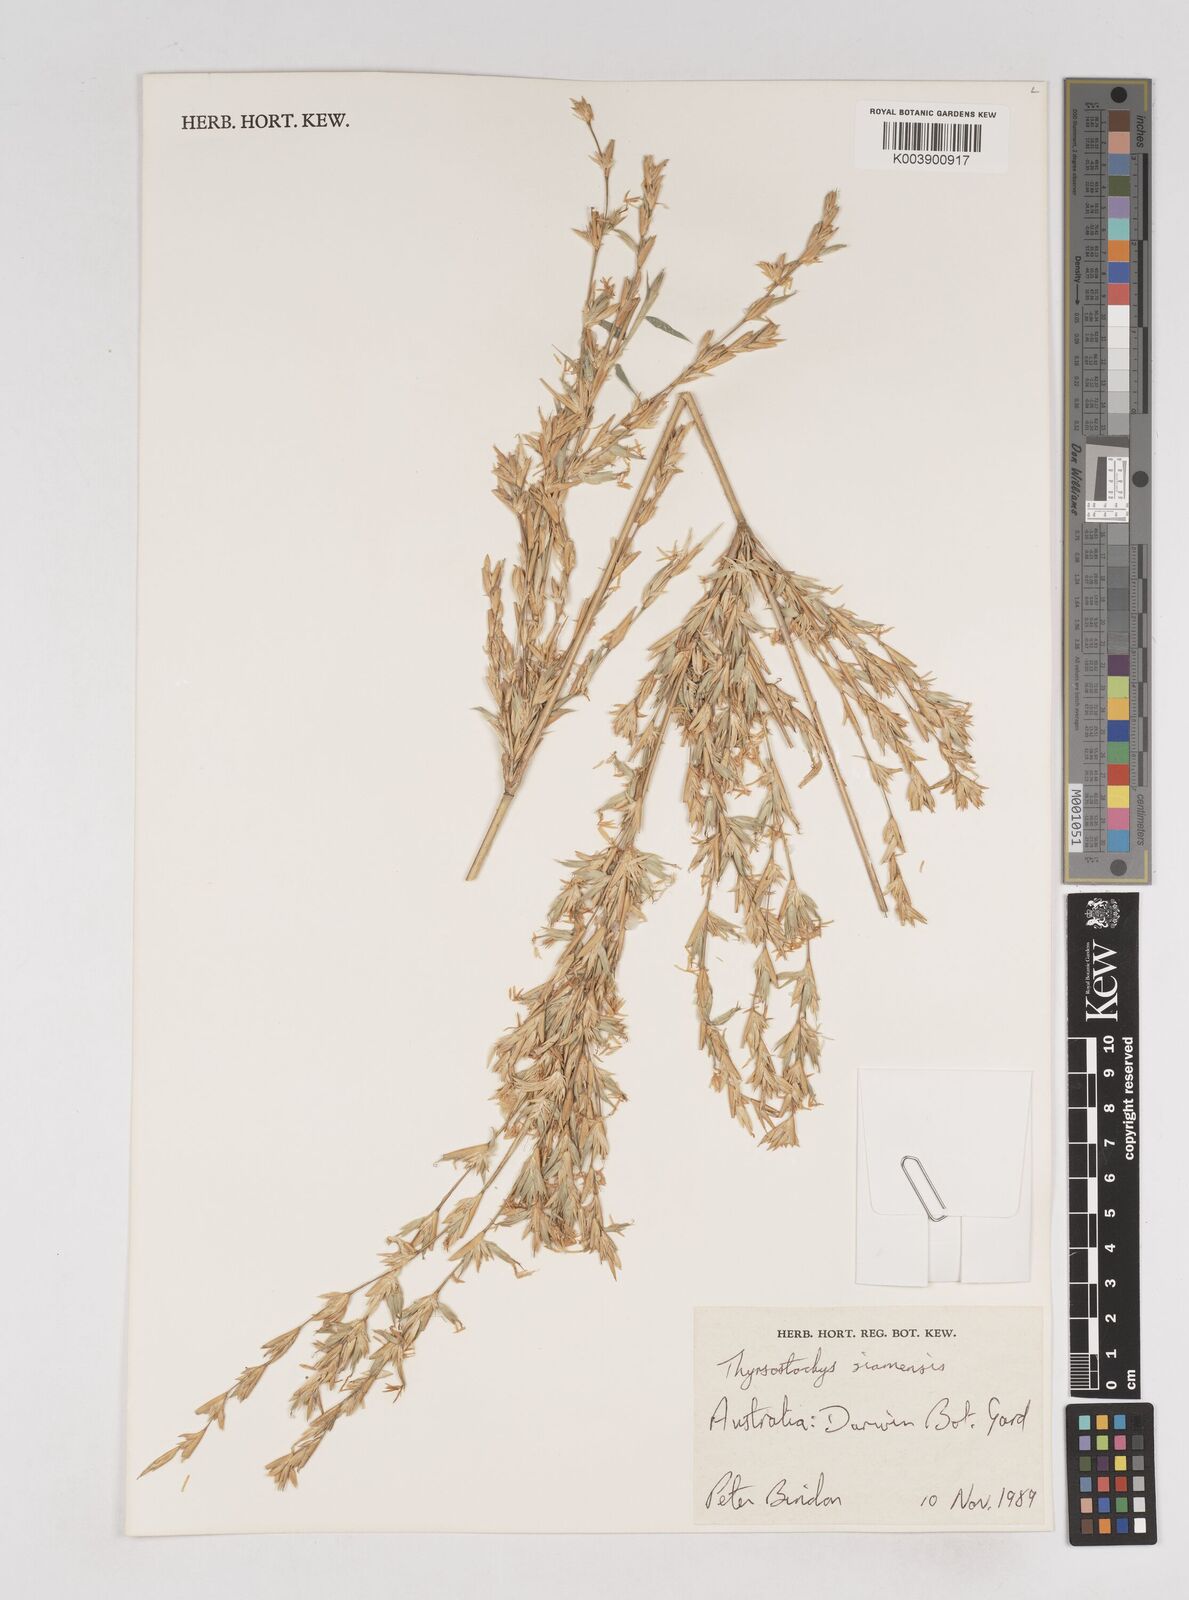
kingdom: Plantae
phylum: Tracheophyta
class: Liliopsida
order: Poales
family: Poaceae
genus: Thyrsostachys
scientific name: Thyrsostachys siamensis
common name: Thailand bamboo
